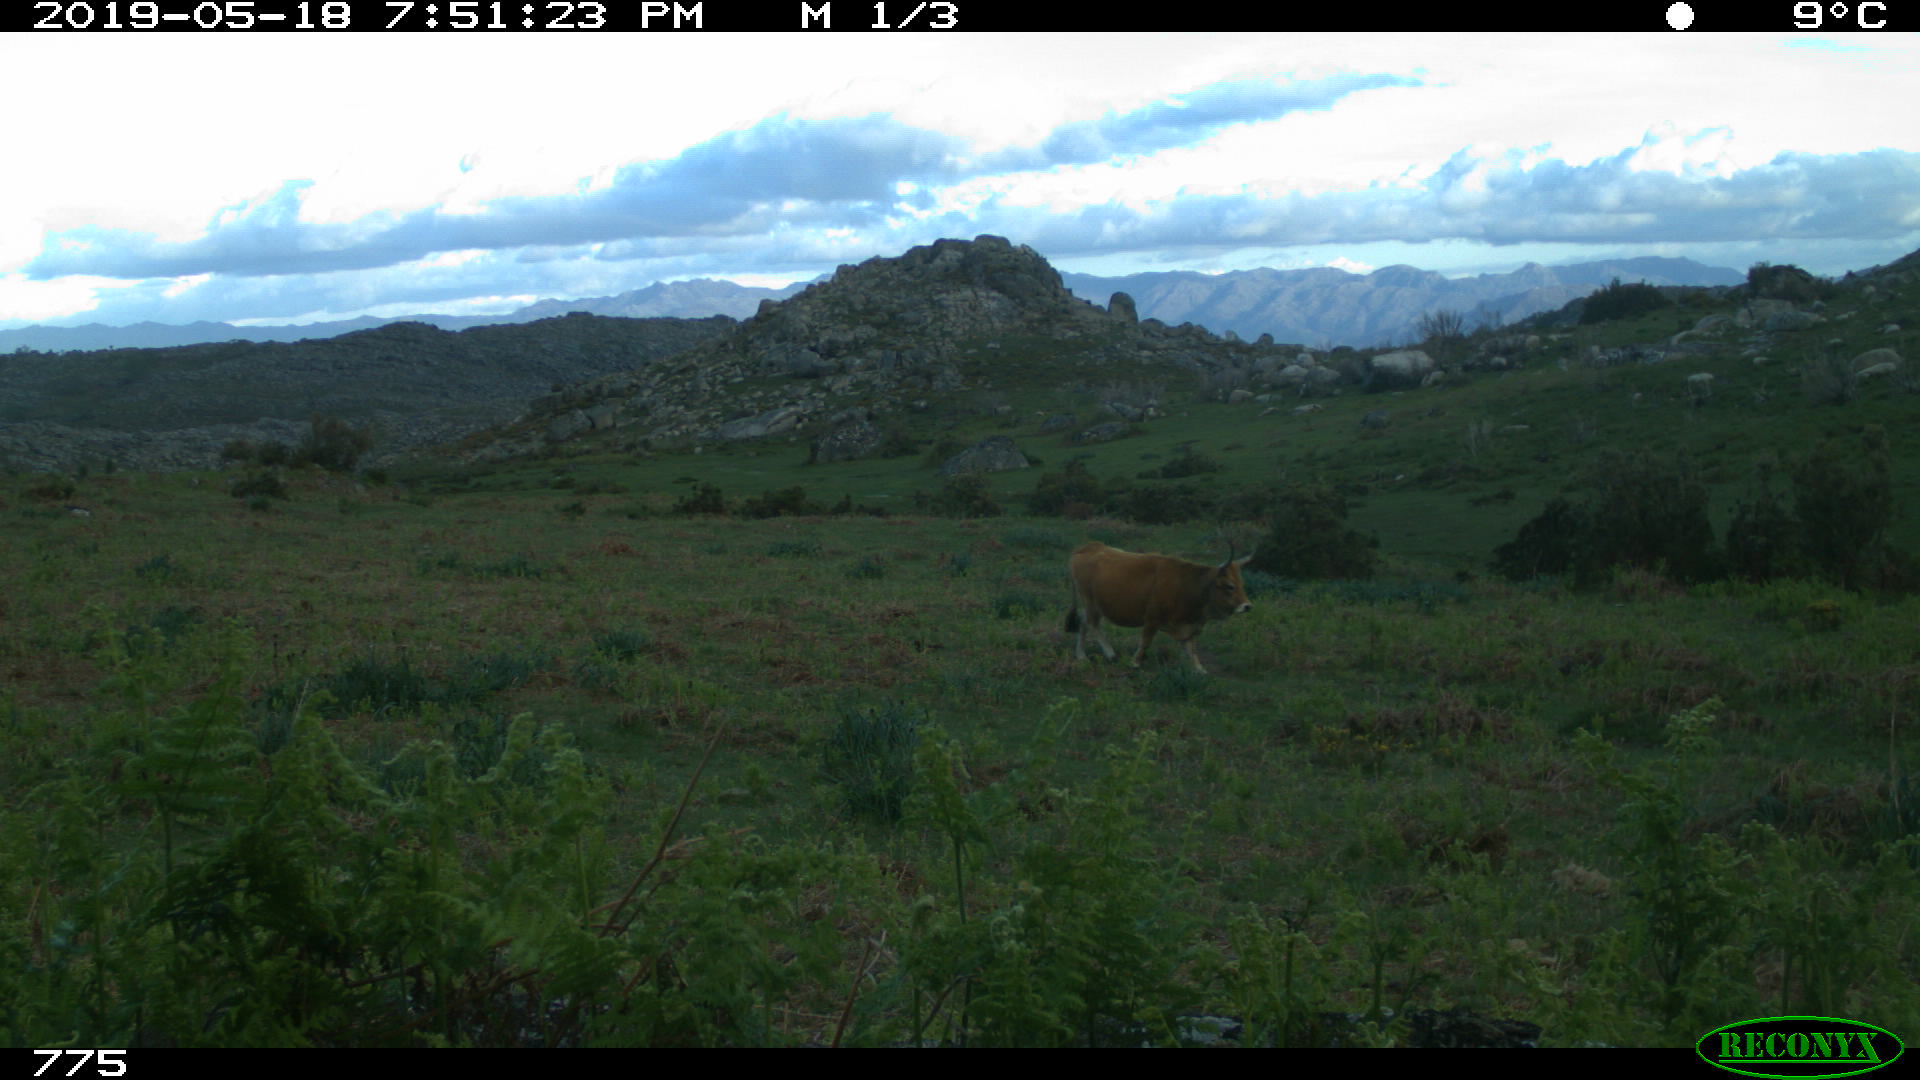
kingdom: Animalia
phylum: Chordata
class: Mammalia
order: Artiodactyla
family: Bovidae
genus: Bos
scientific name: Bos taurus
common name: Domesticated cattle
